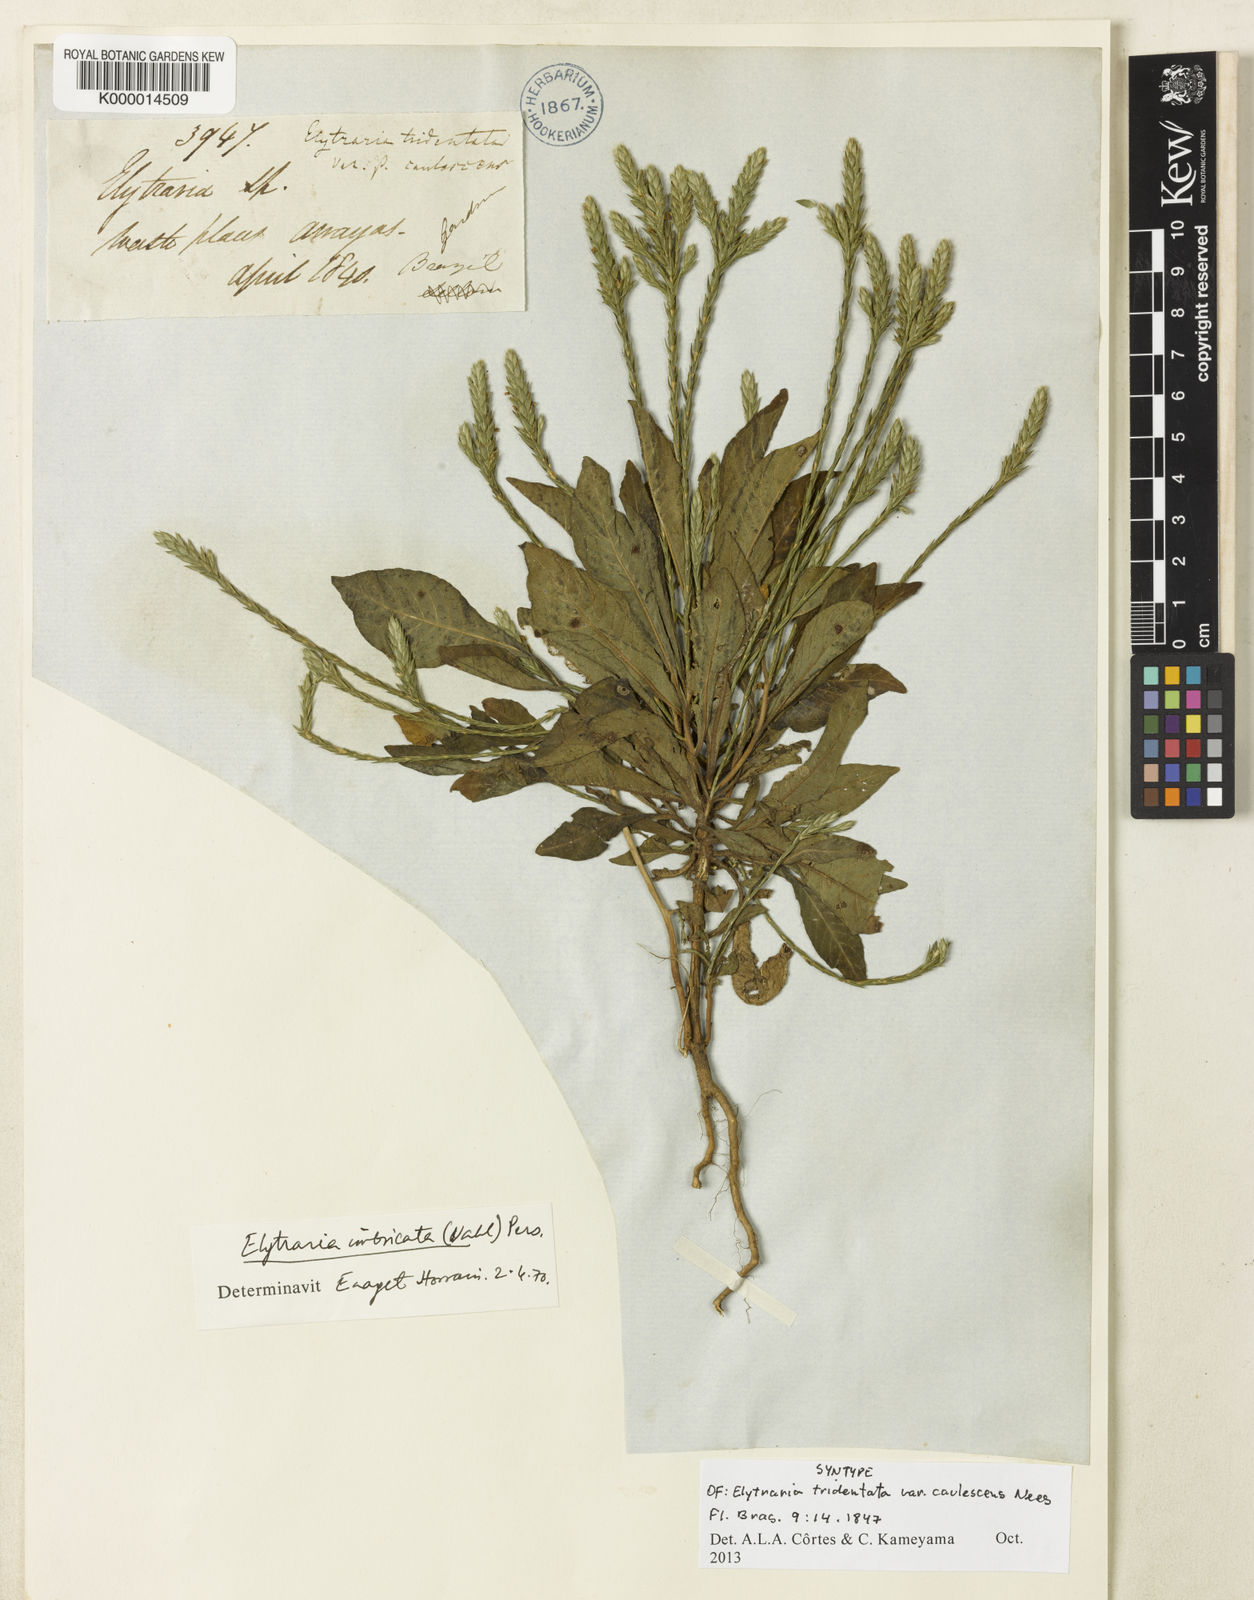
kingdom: Plantae
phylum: Tracheophyta
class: Magnoliopsida
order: Lamiales
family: Acanthaceae
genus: Elytraria
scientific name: Elytraria imbricata
